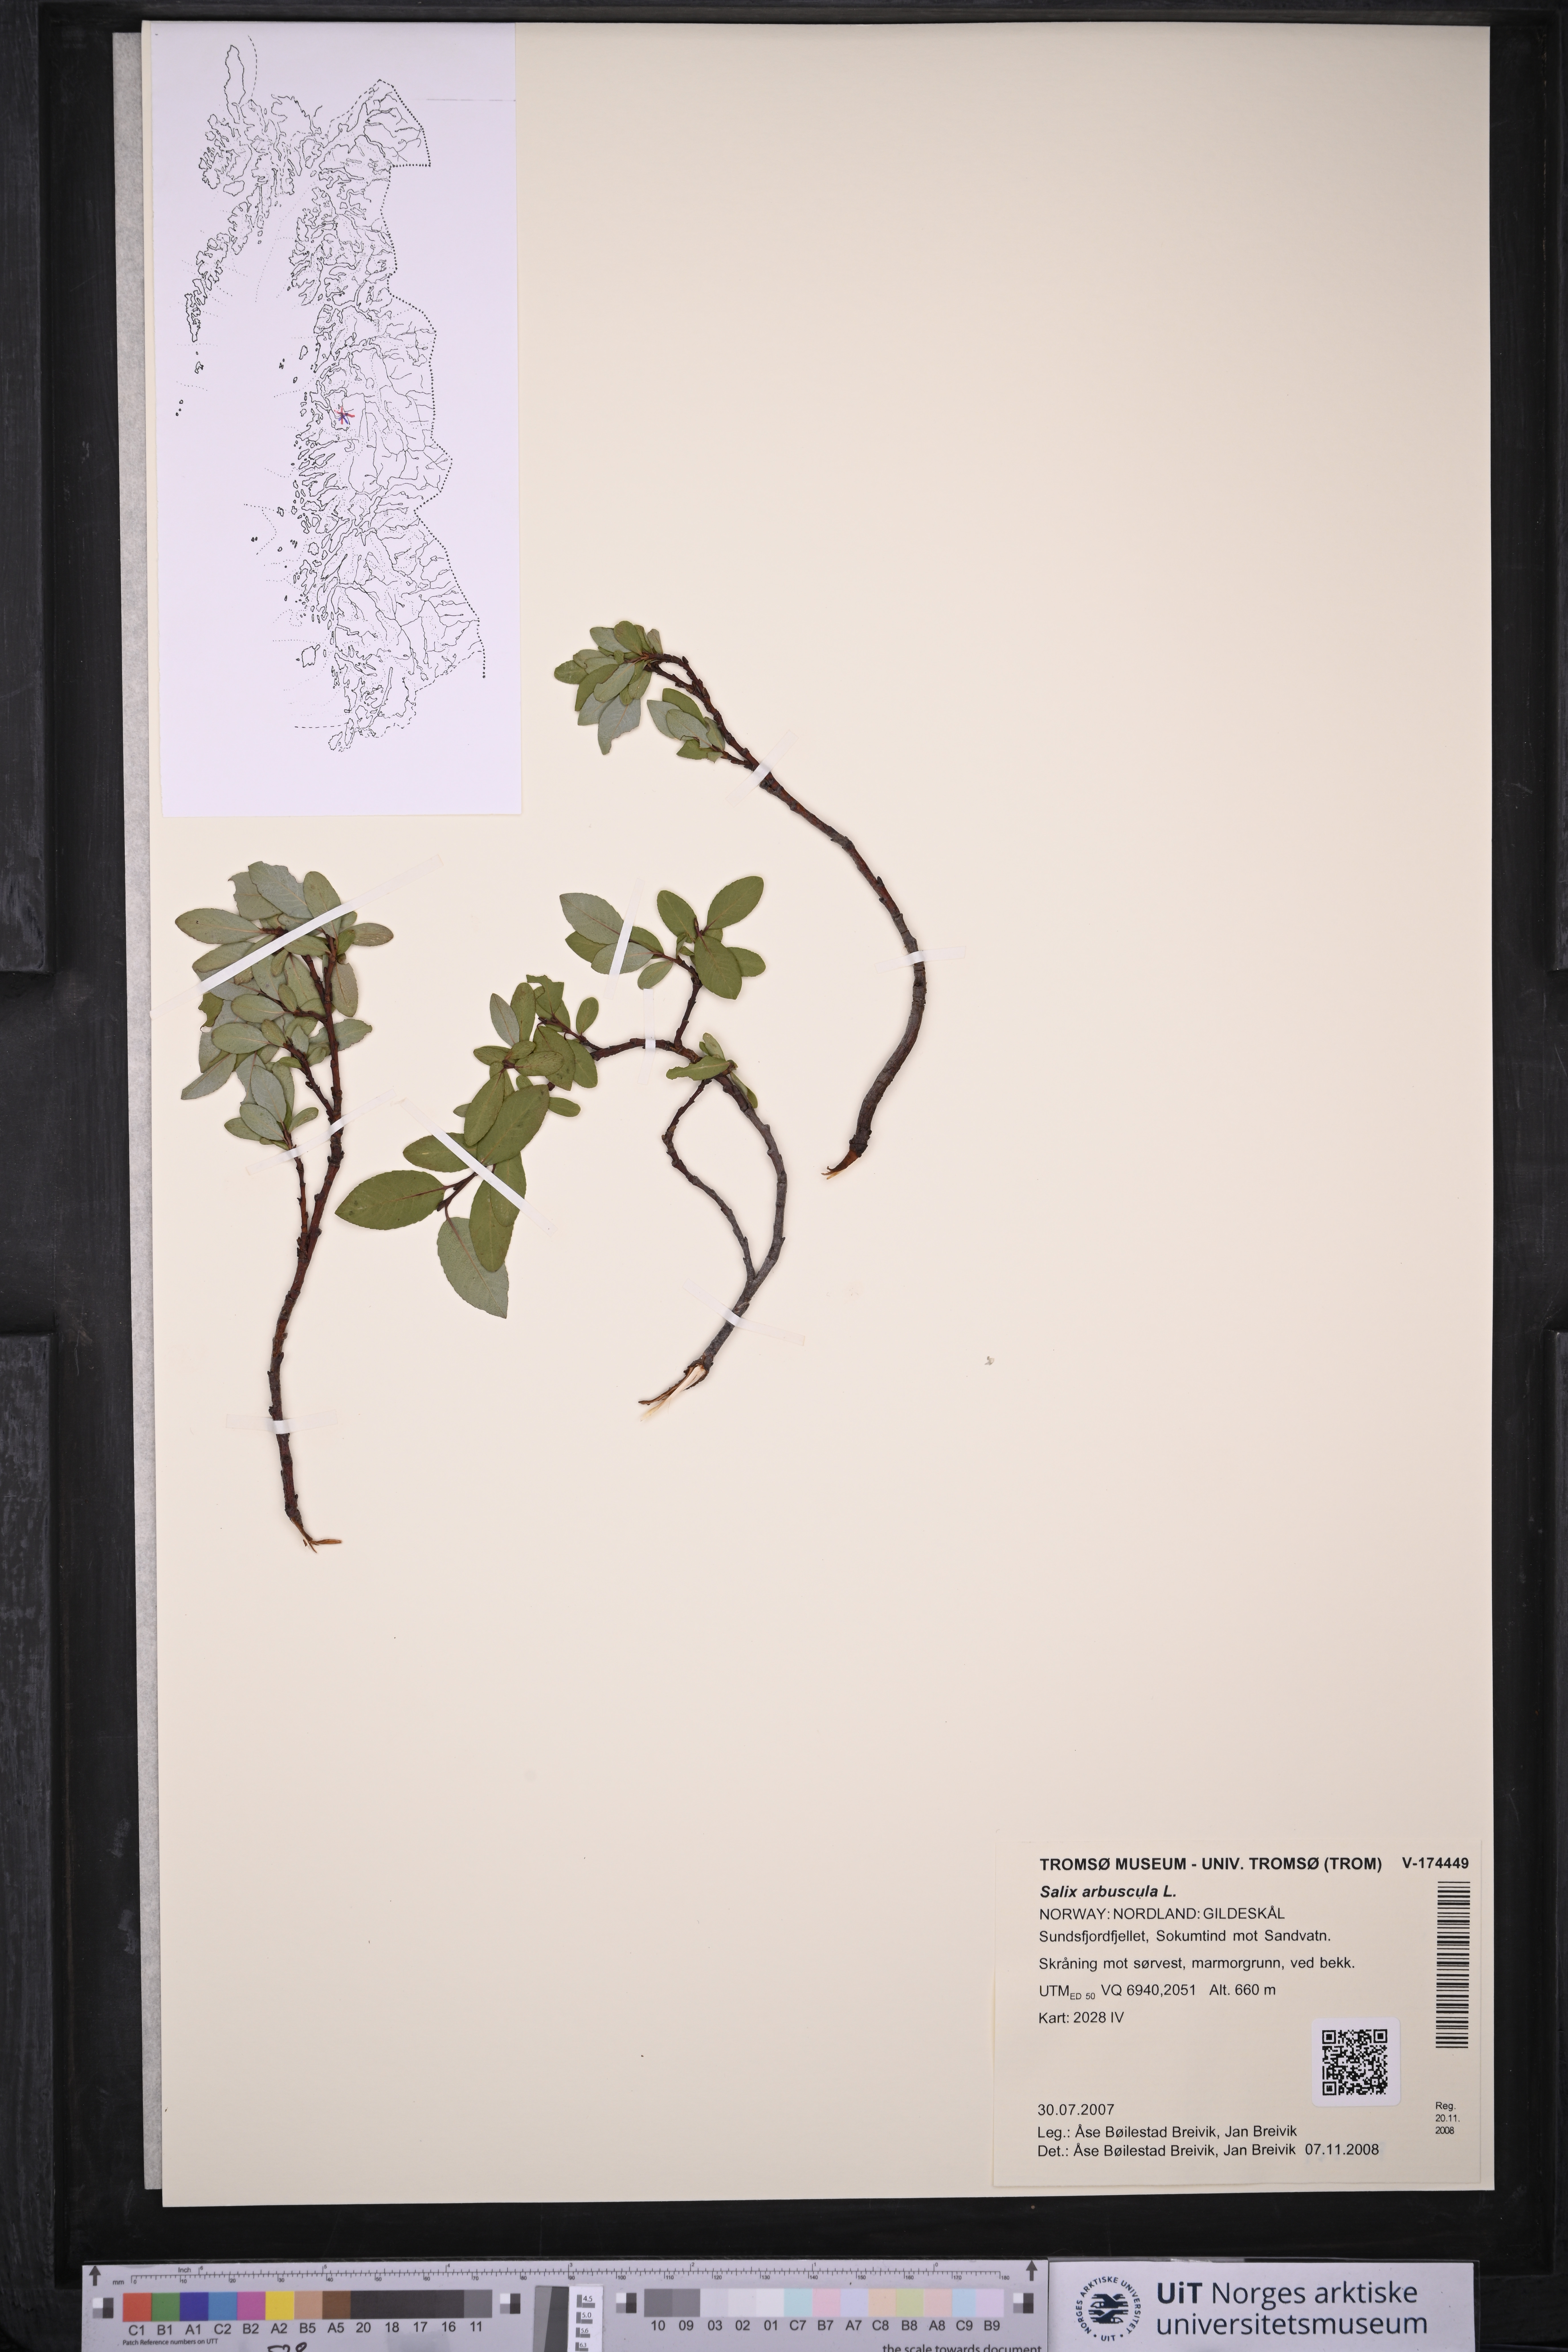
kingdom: Plantae
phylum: Tracheophyta
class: Magnoliopsida
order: Malpighiales
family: Salicaceae
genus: Salix
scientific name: Salix arbuscula
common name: Mountain willow
